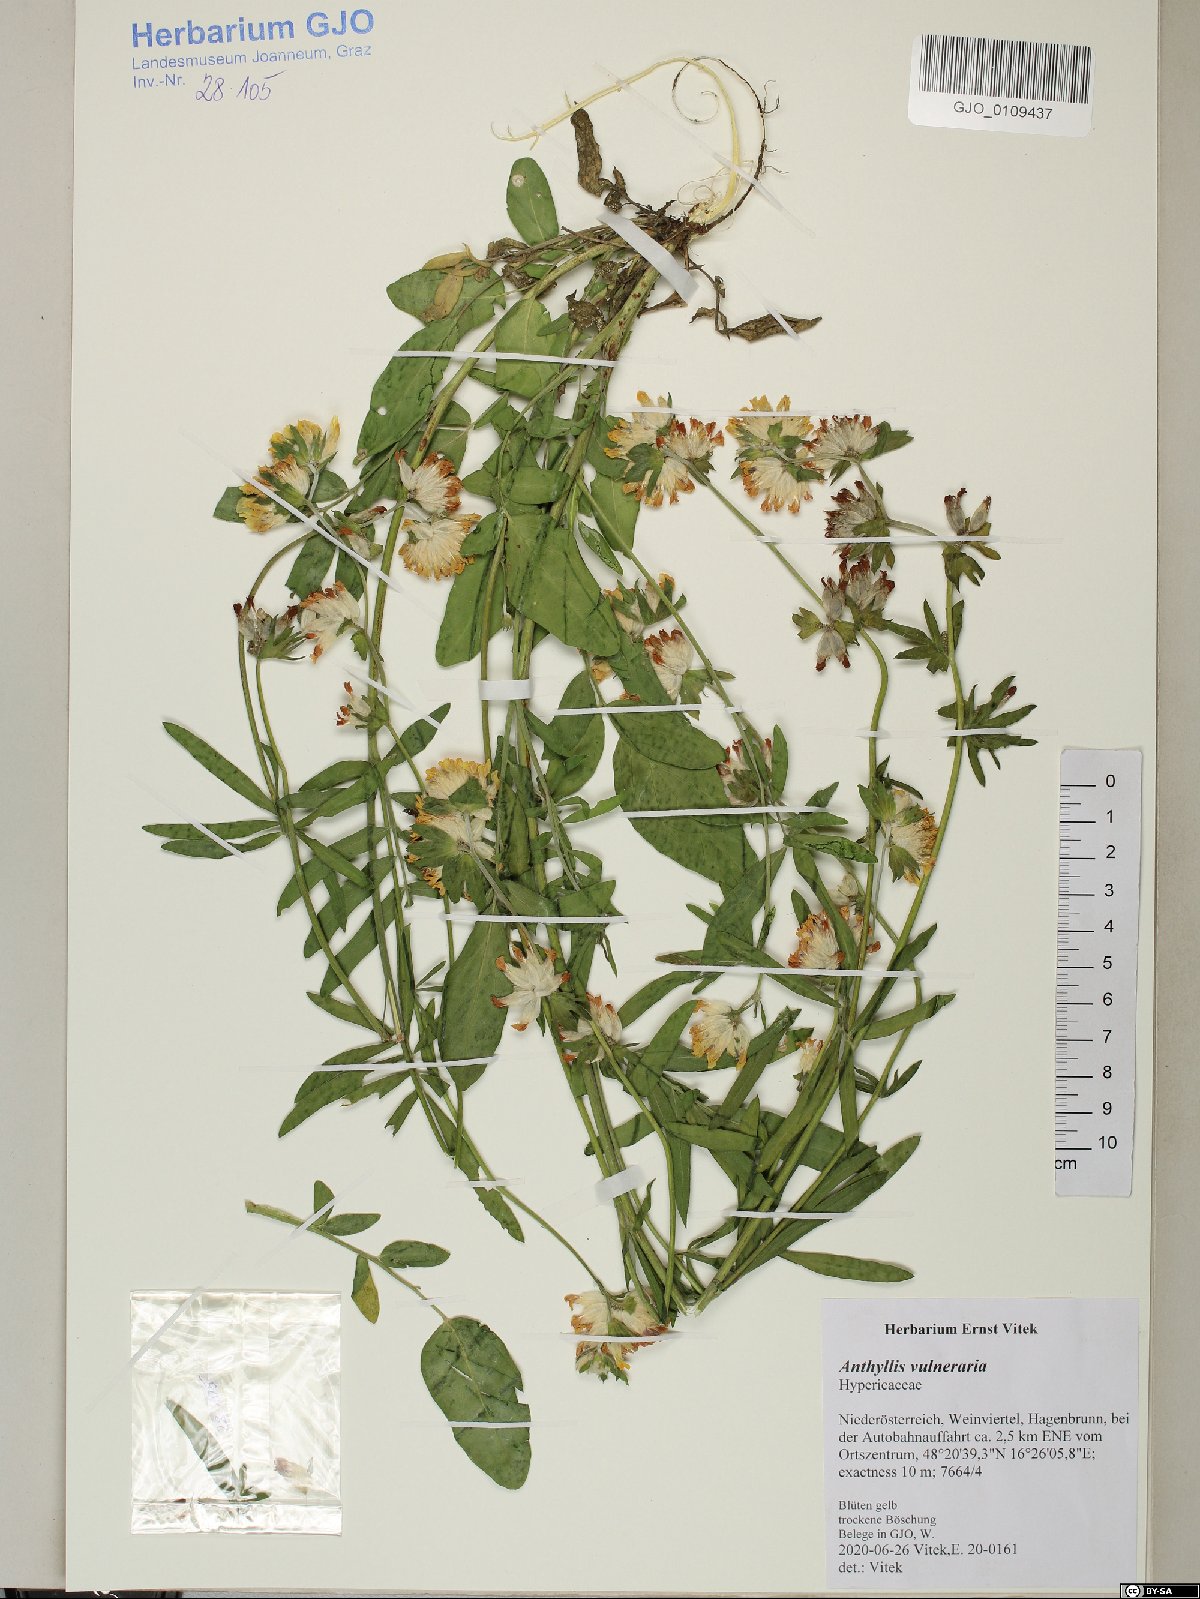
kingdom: Plantae
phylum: Tracheophyta
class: Magnoliopsida
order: Fabales
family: Fabaceae
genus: Anthyllis
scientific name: Anthyllis vulneraria
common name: Kidney vetch
